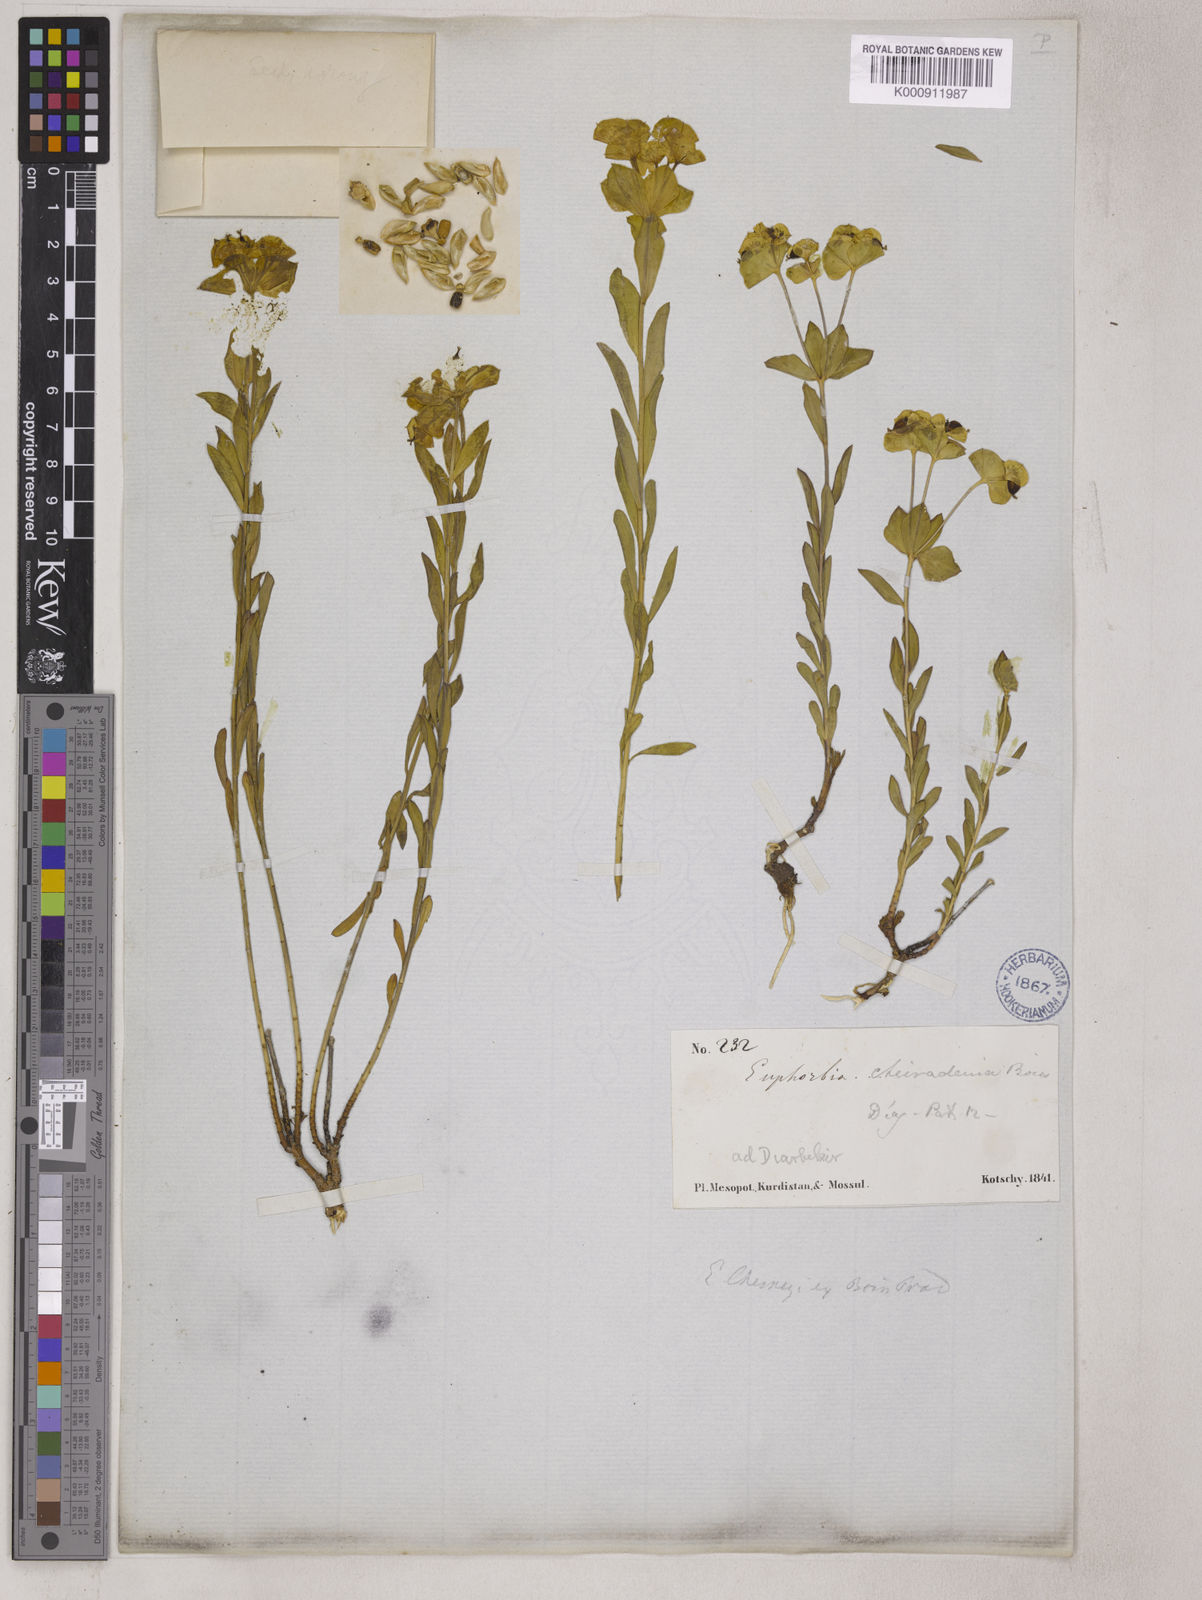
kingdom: Plantae
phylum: Tracheophyta
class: Magnoliopsida
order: Malpighiales
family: Euphorbiaceae
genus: Euphorbia
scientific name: Euphorbia cheiradenia
